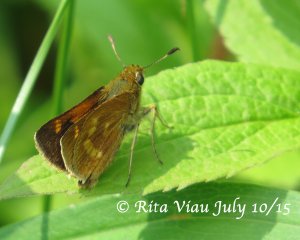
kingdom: Animalia
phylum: Arthropoda
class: Insecta
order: Lepidoptera
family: Hesperiidae
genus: Polites
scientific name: Polites
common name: Long Dash Skipper
